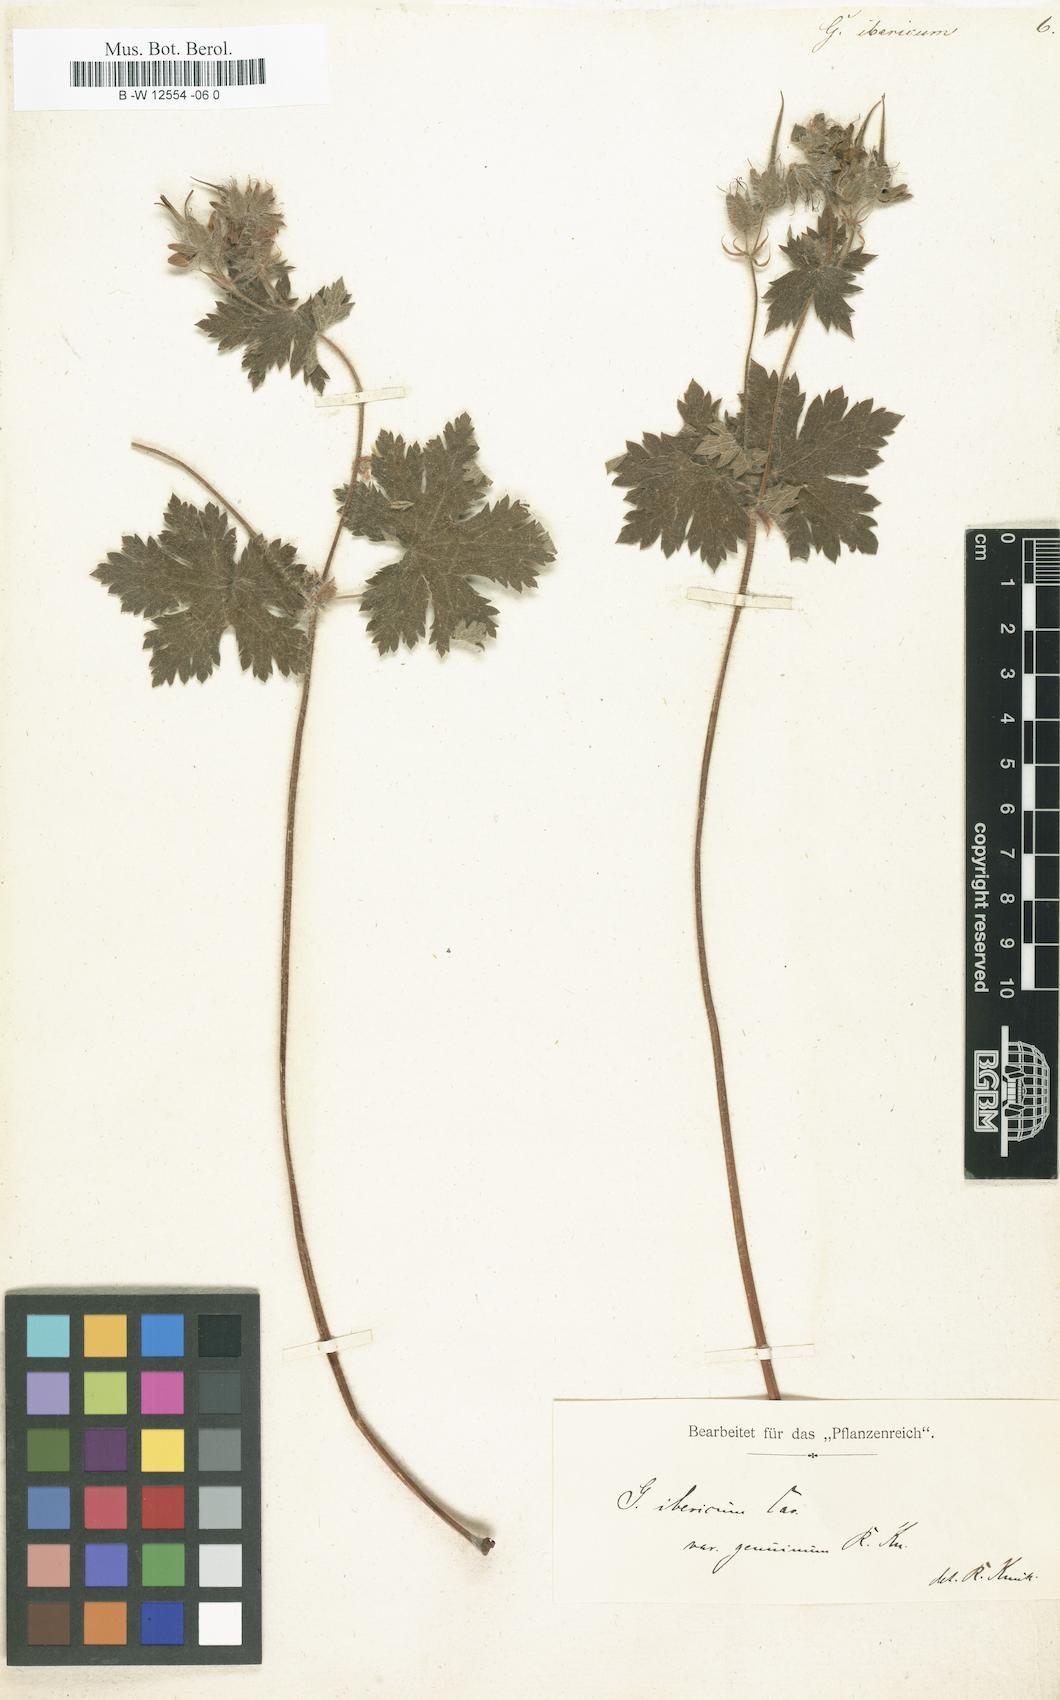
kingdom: Plantae
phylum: Tracheophyta
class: Magnoliopsida
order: Geraniales
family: Geraniaceae
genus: Geranium
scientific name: Geranium ibericum
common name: Caucasian crane's-bill
